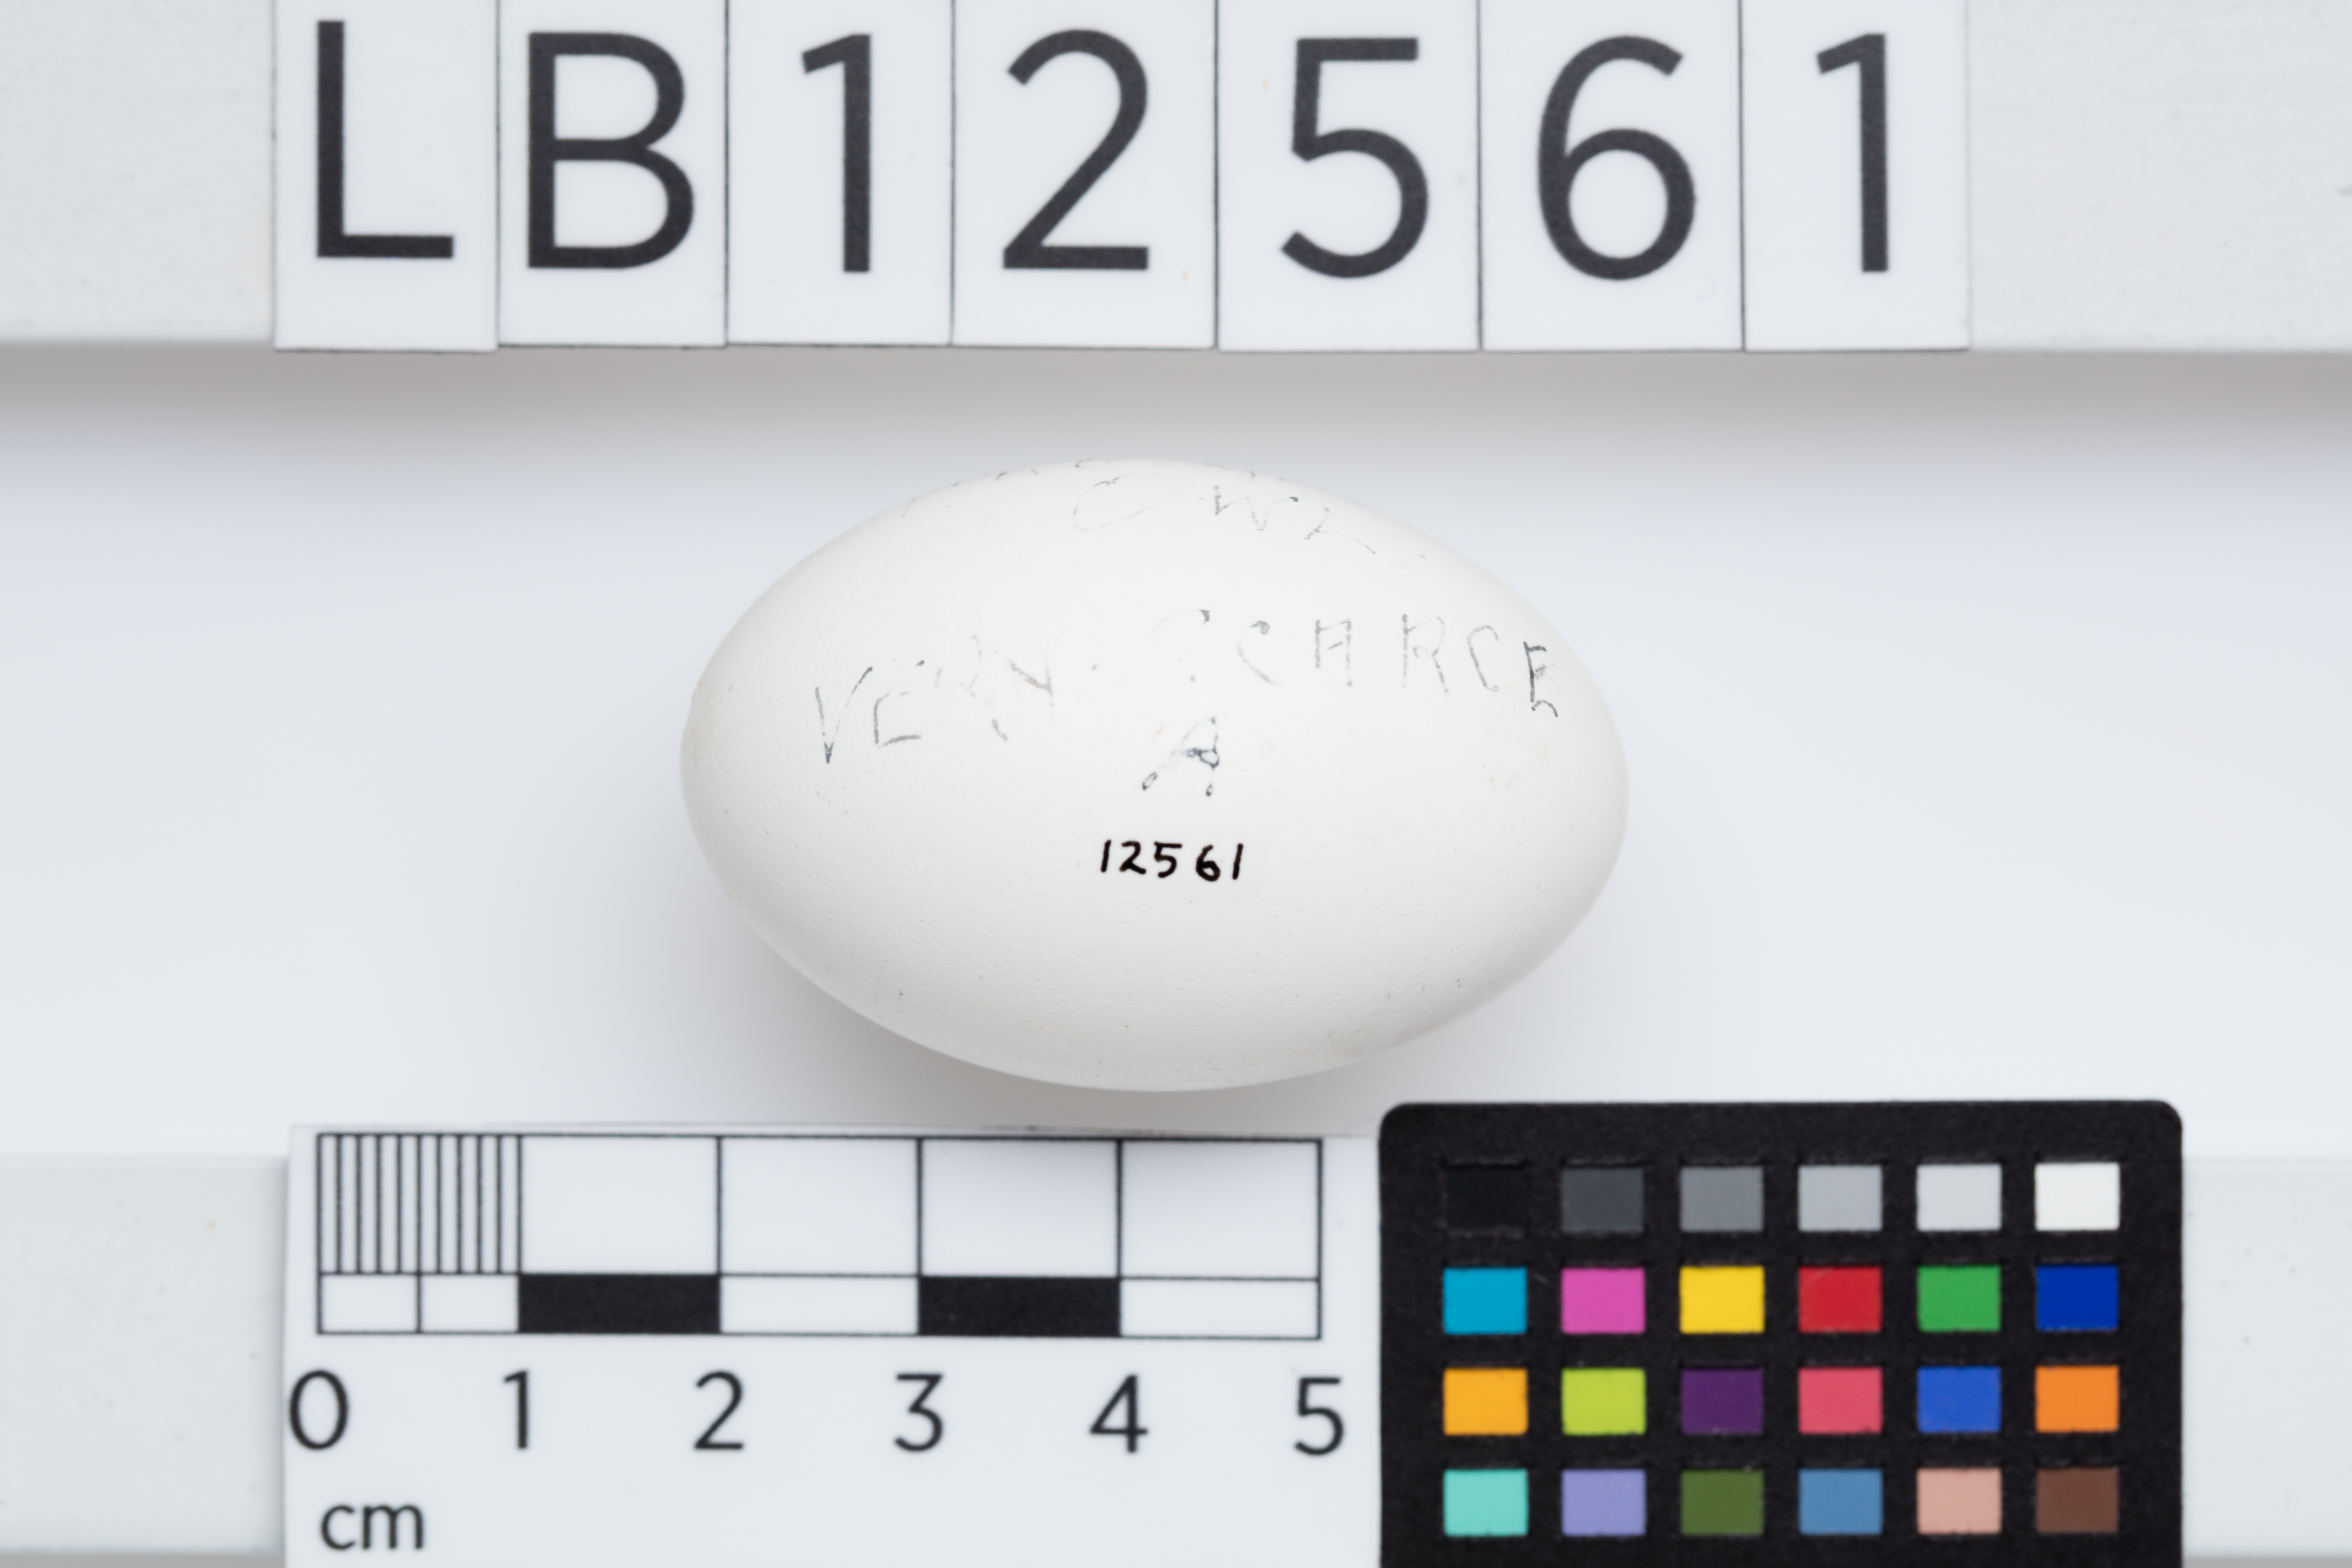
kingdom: Animalia
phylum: Chordata
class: Aves
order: Caprimulgiformes
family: Podargidae
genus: Podargus
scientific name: Podargus strigoides
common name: Tawny frogmouth
